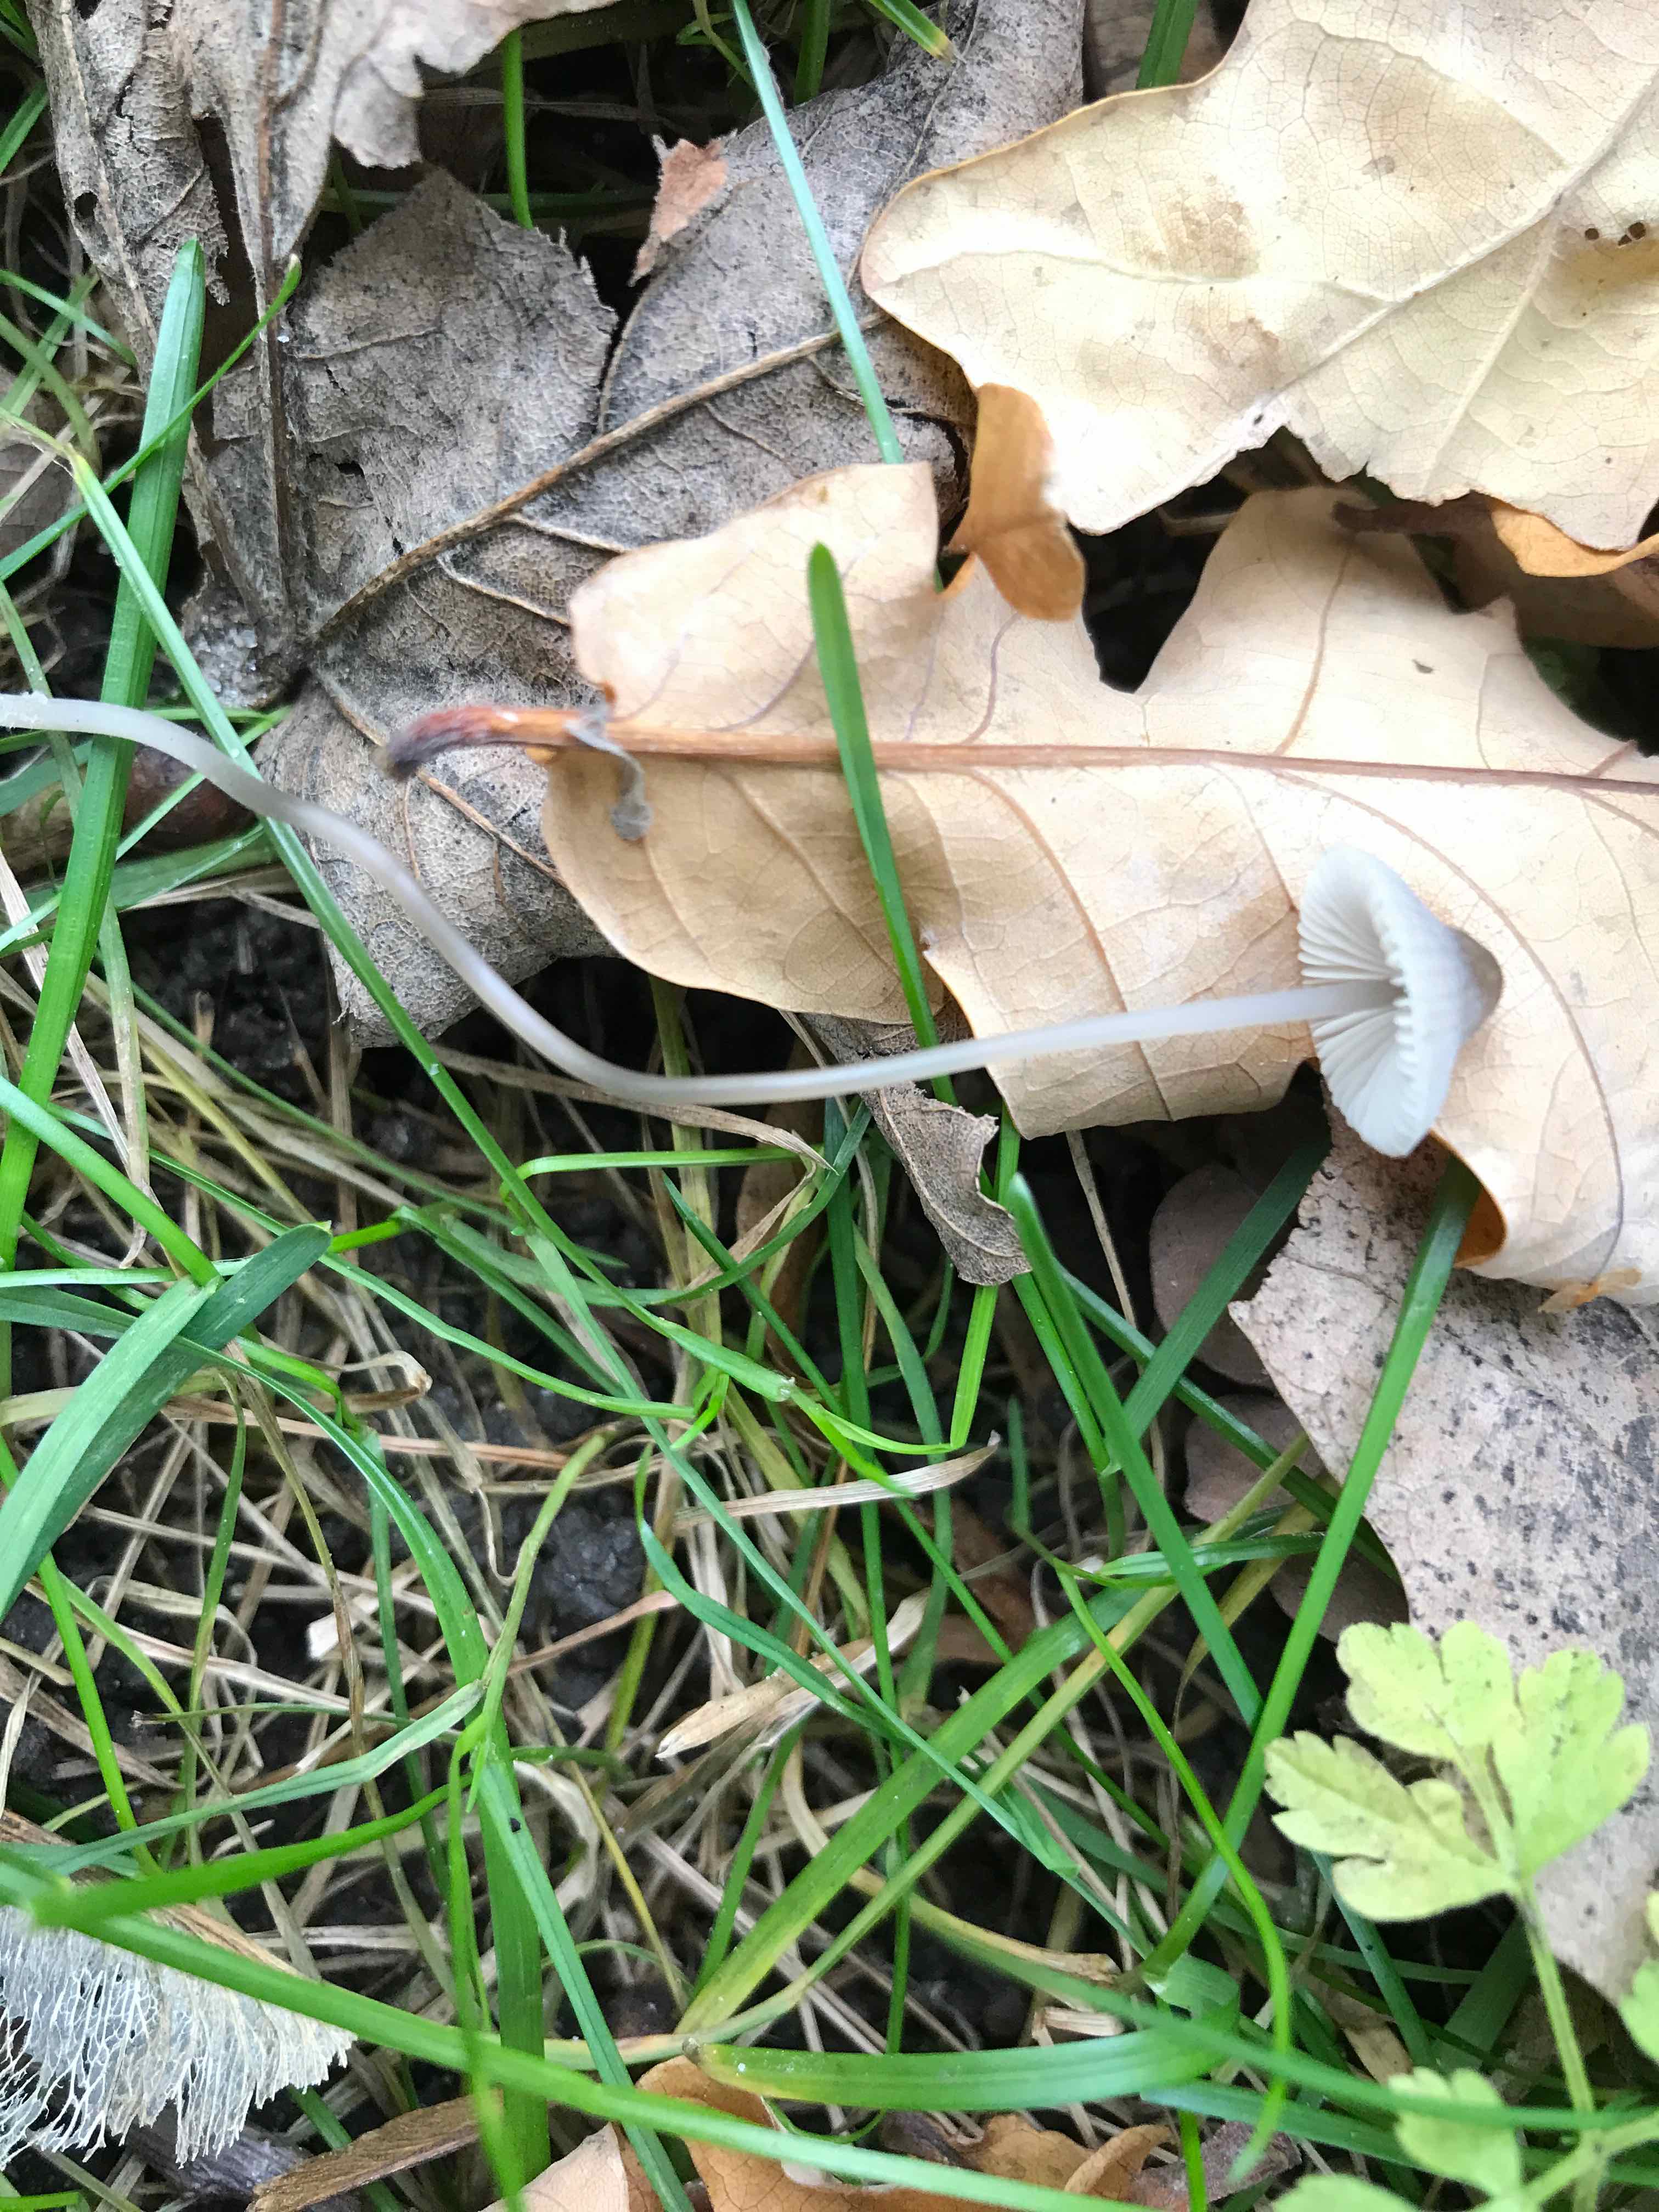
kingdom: Fungi
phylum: Basidiomycota
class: Agaricomycetes
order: Agaricales
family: Mycenaceae
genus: Mycena
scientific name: Mycena vitilis
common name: blankstokket huesvamp
